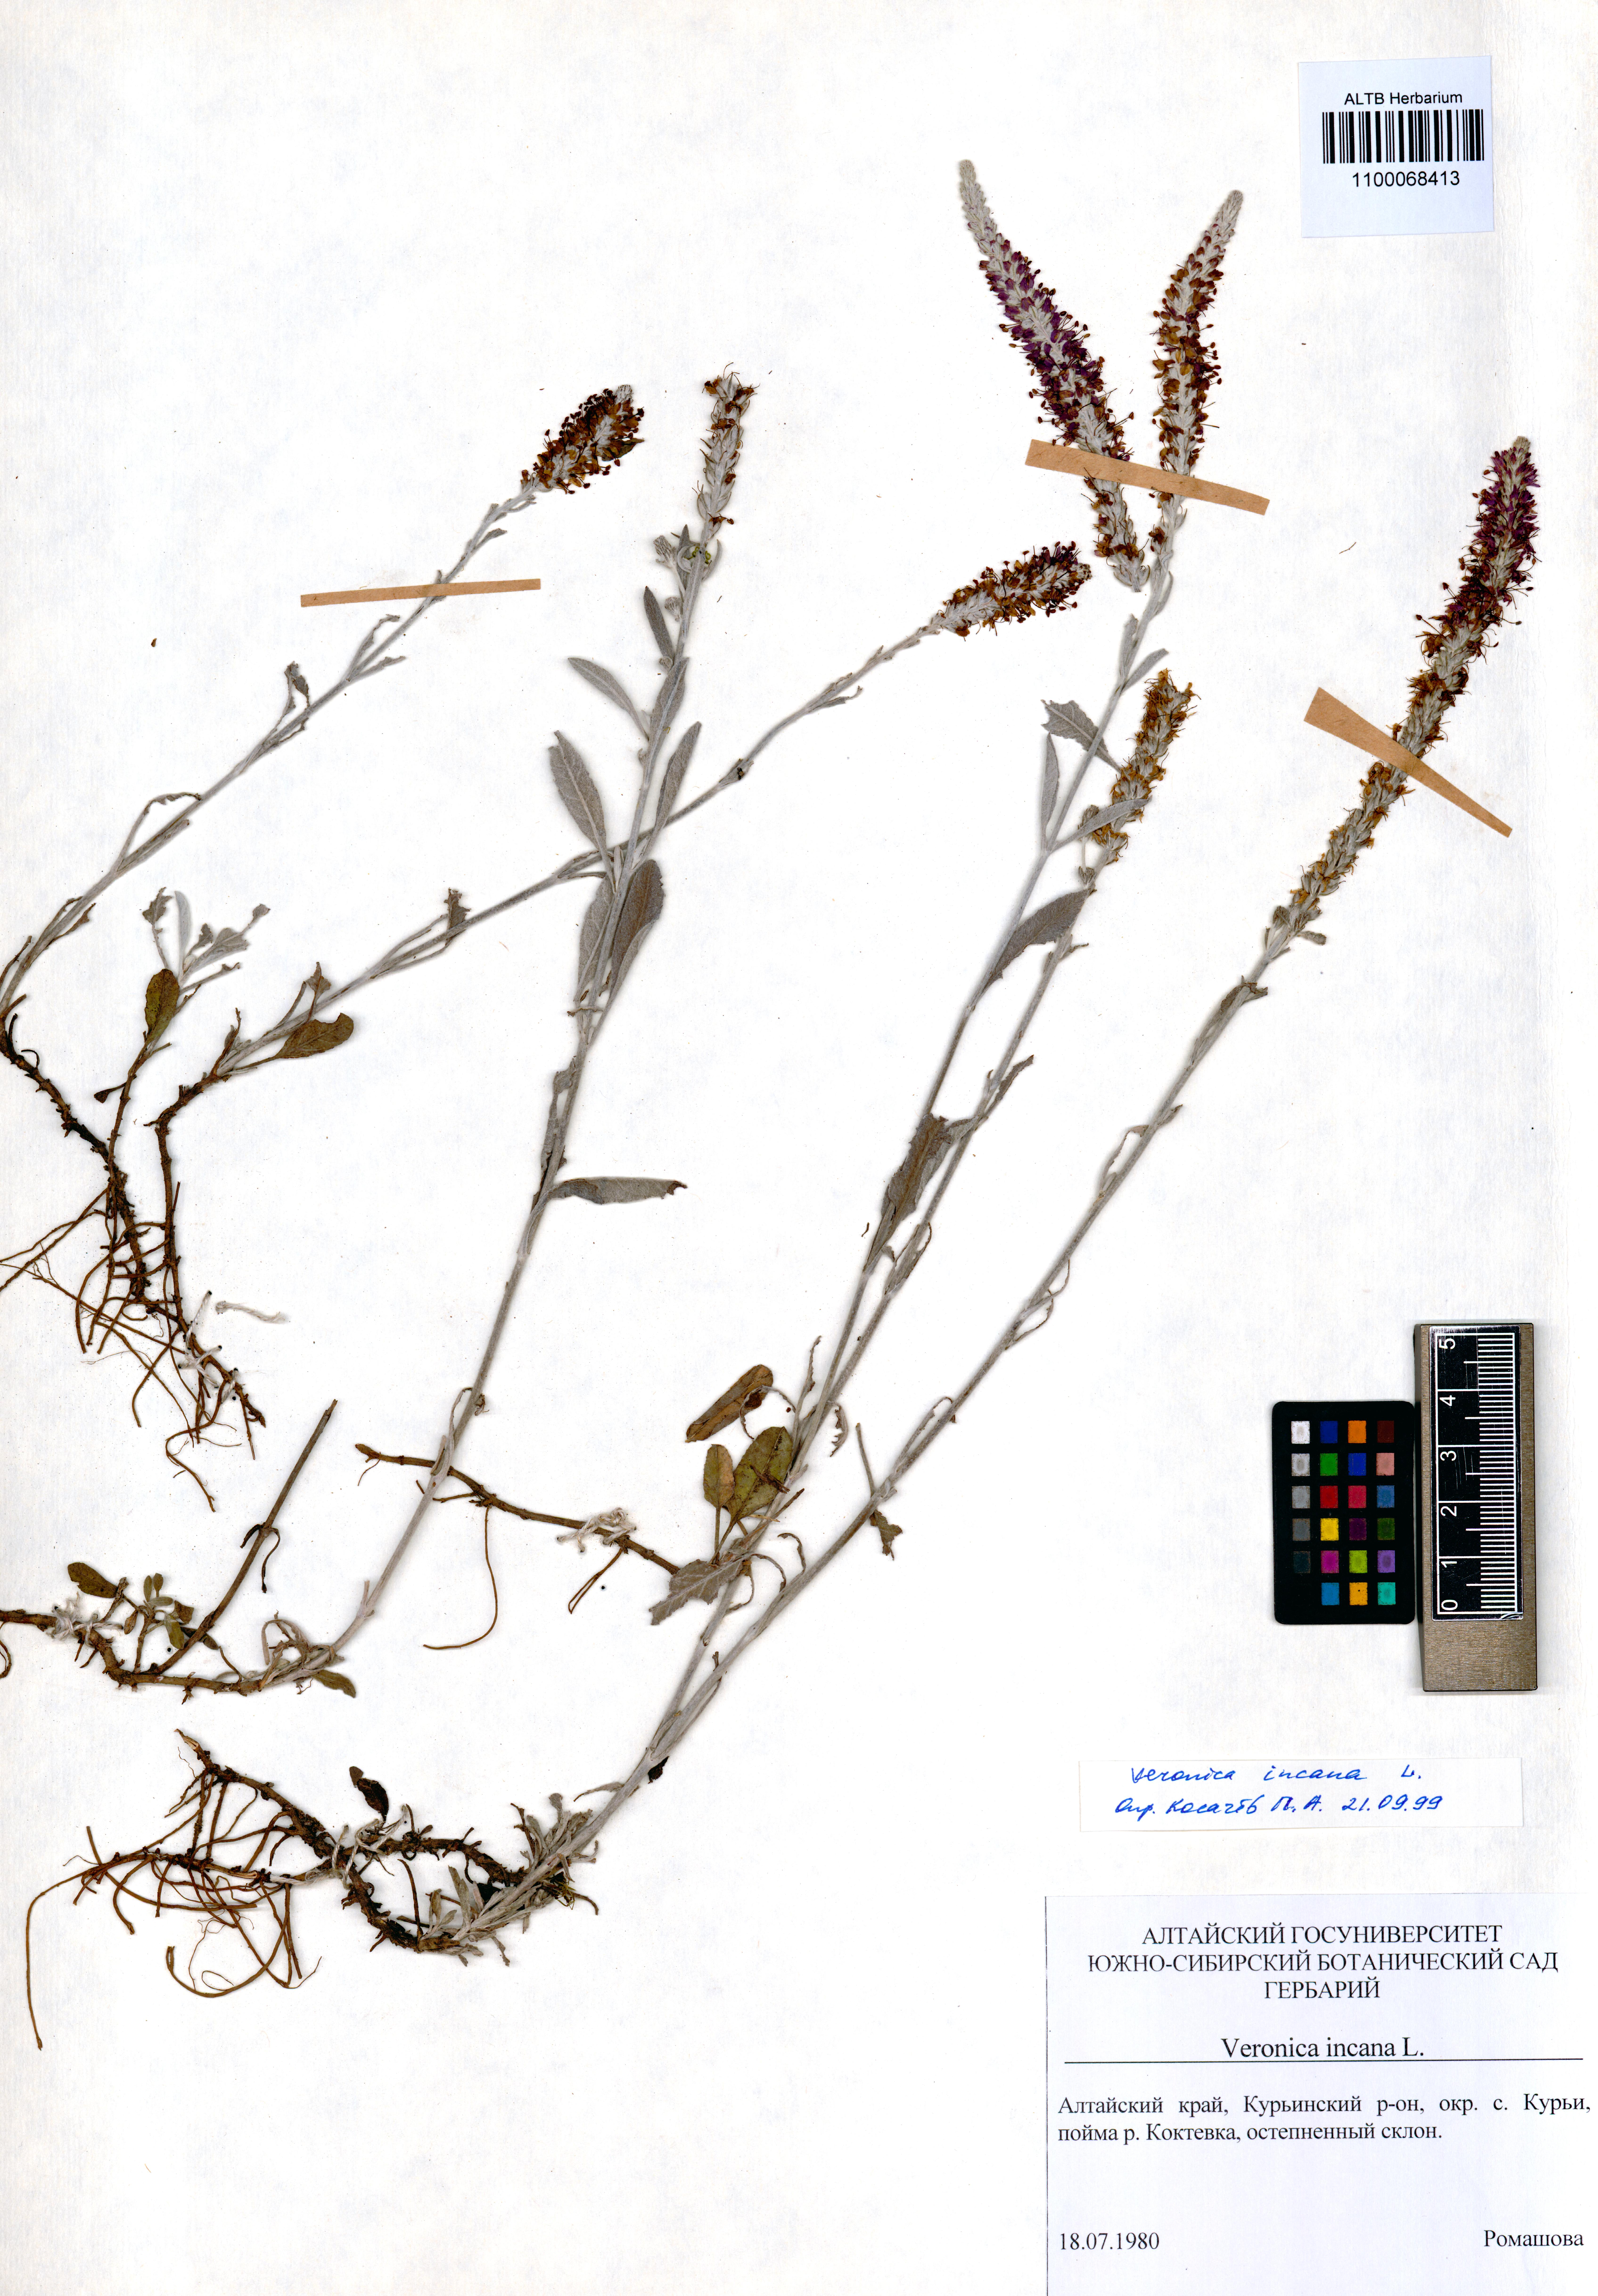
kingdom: Plantae
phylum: Tracheophyta
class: Magnoliopsida
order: Lamiales
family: Plantaginaceae
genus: Veronica
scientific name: Veronica incana
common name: Silver speedwell
